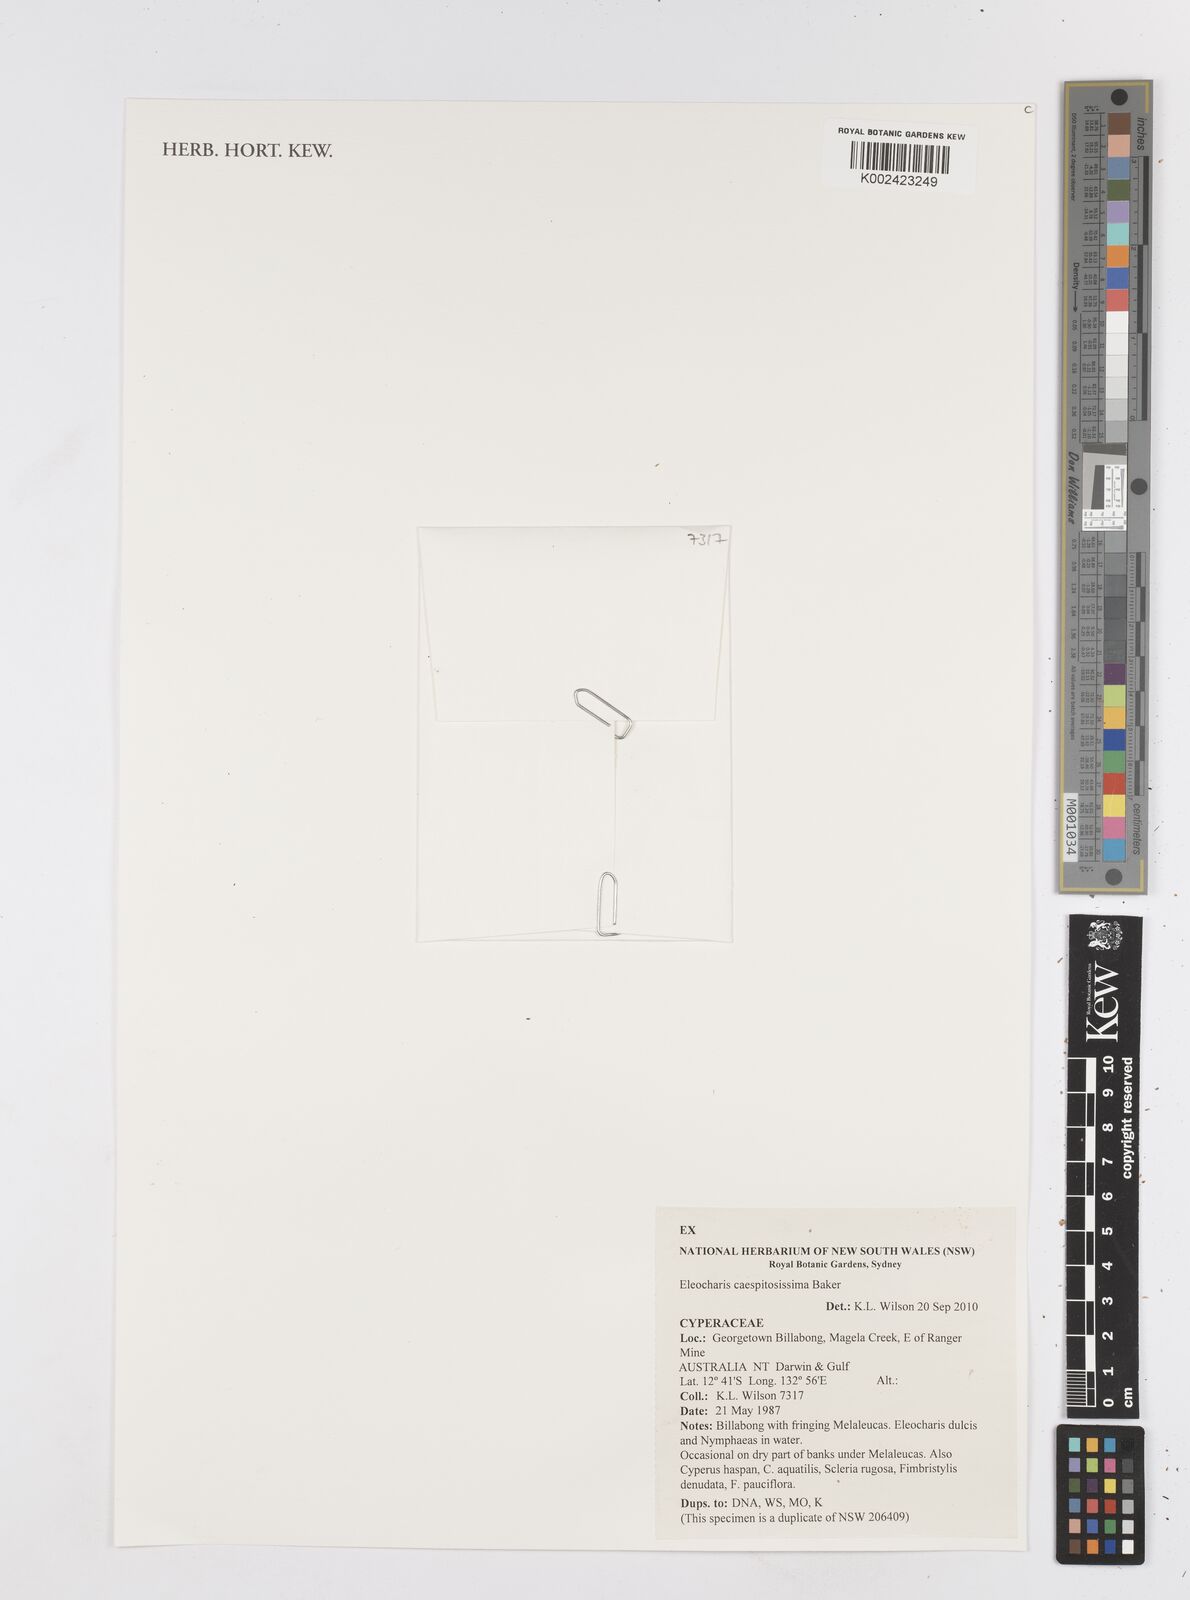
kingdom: Plantae
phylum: Tracheophyta
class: Liliopsida
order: Poales
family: Cyperaceae
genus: Eleocharis
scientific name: Eleocharis caespitosissima
